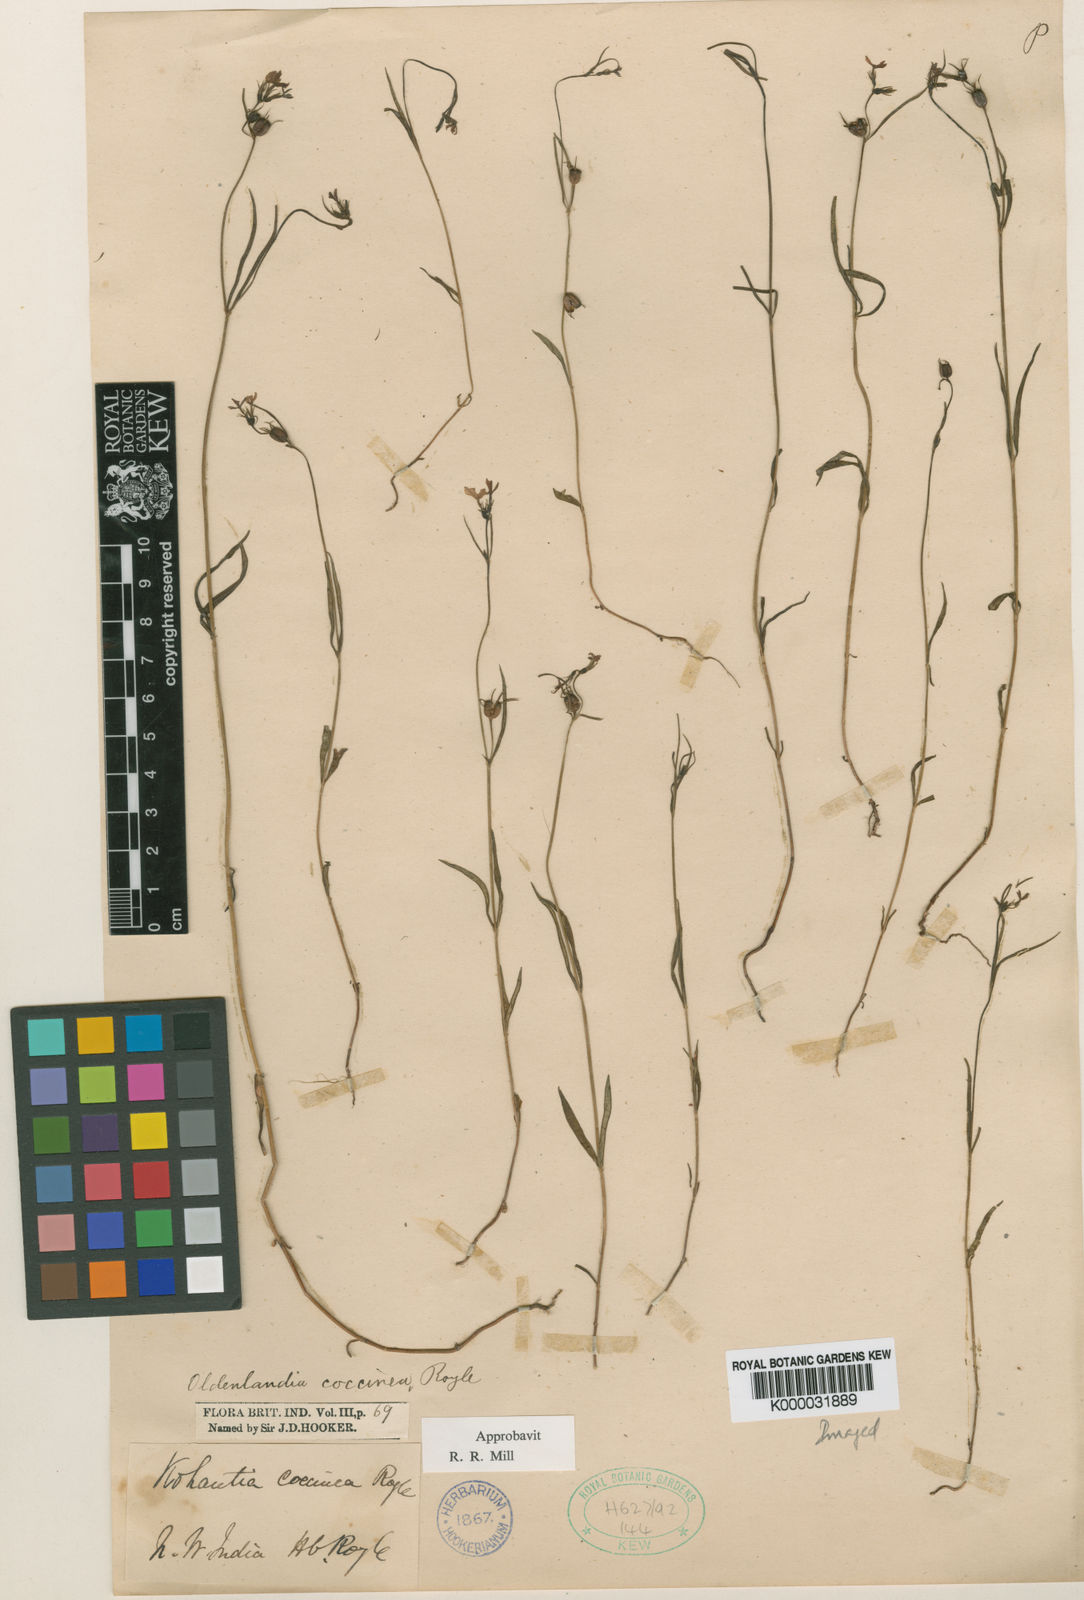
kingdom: Plantae
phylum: Tracheophyta
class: Magnoliopsida
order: Gentianales
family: Rubiaceae
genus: Kohautia
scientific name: Kohautia coccinea
